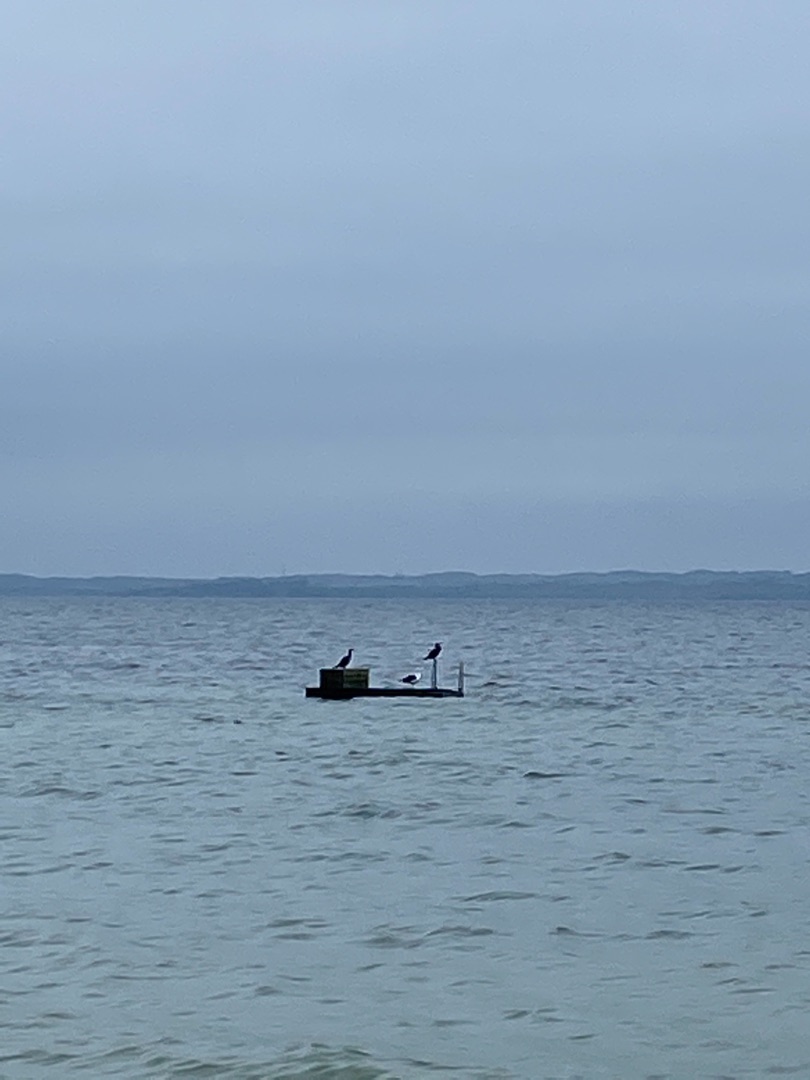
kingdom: Animalia
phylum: Chordata
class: Aves
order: Suliformes
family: Phalacrocoracidae
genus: Phalacrocorax
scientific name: Phalacrocorax carbo
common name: Skarv
